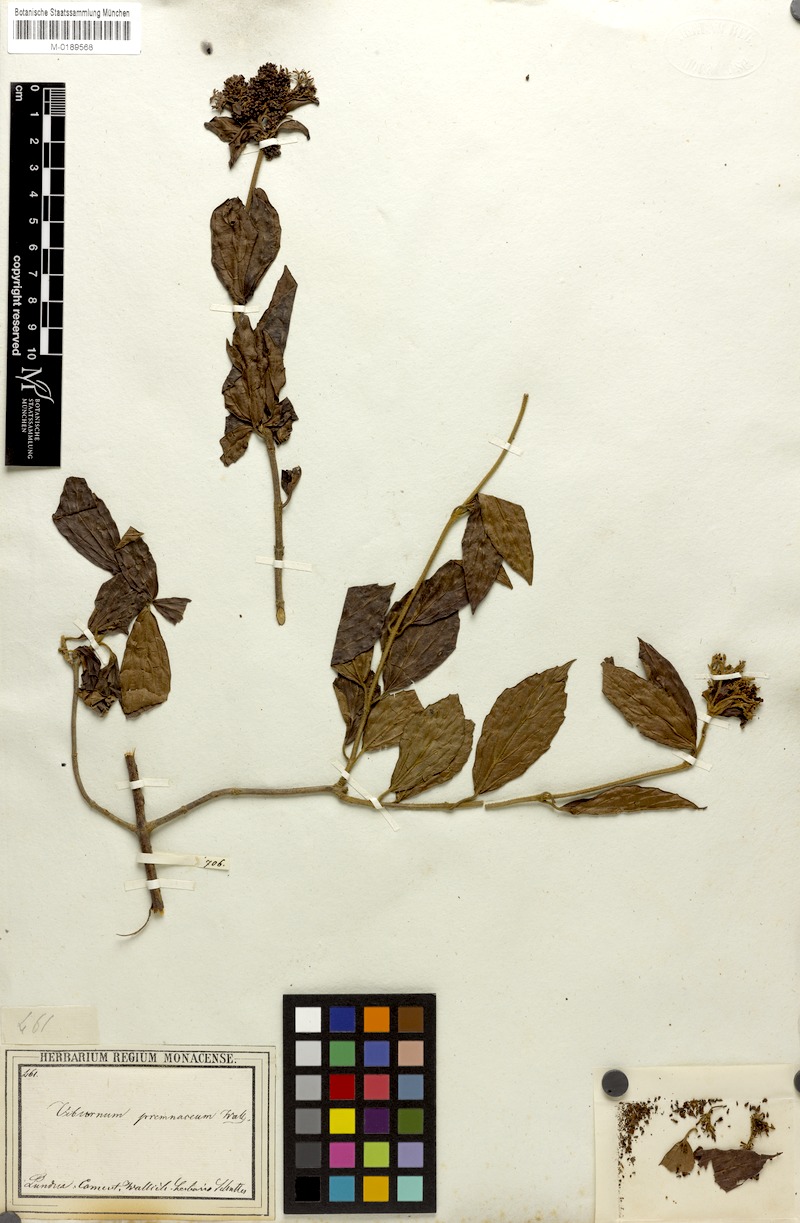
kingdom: Plantae
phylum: Tracheophyta
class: Magnoliopsida
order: Dipsacales
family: Viburnaceae
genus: Viburnum
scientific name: Viburnum foetidum
